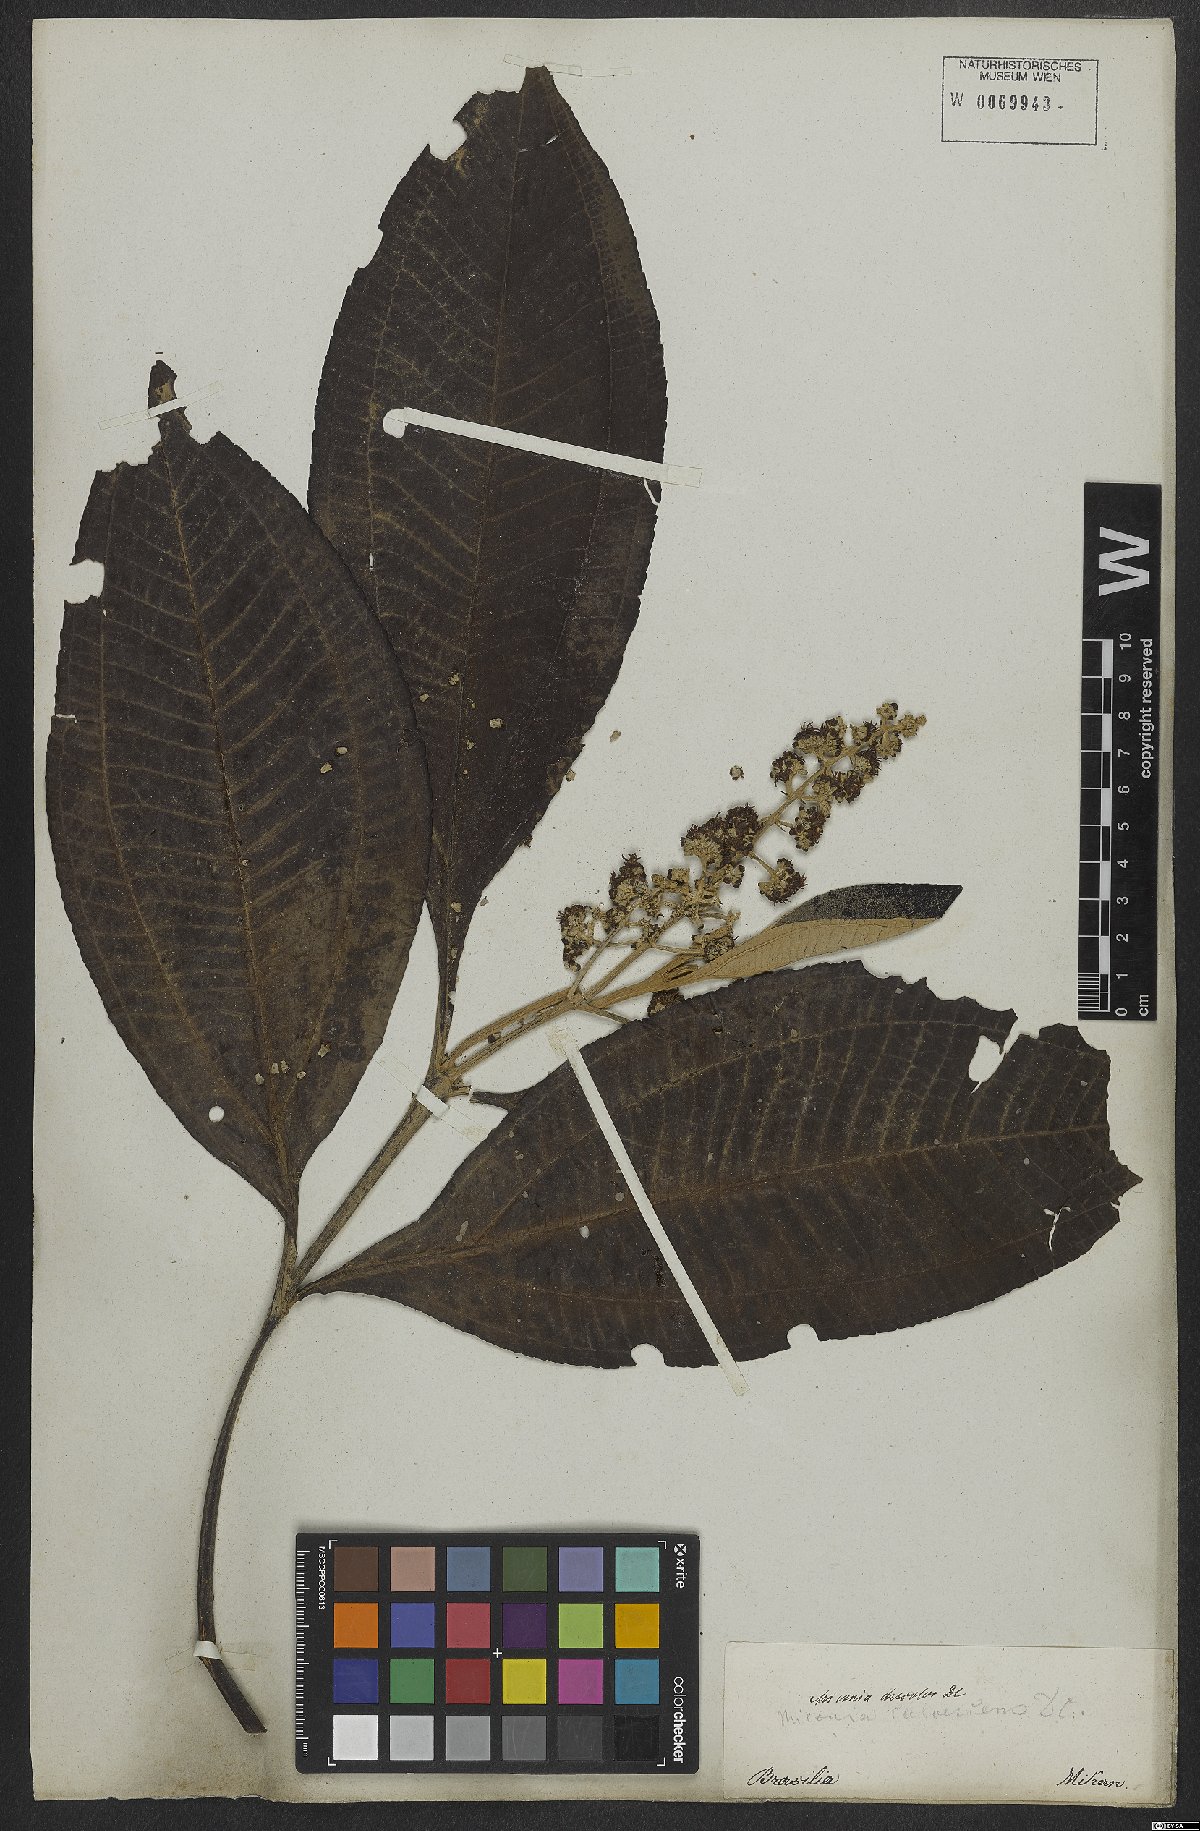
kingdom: Plantae
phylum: Tracheophyta
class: Magnoliopsida
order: Myrtales
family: Melastomataceae
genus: Miconia
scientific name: Miconia discolor
